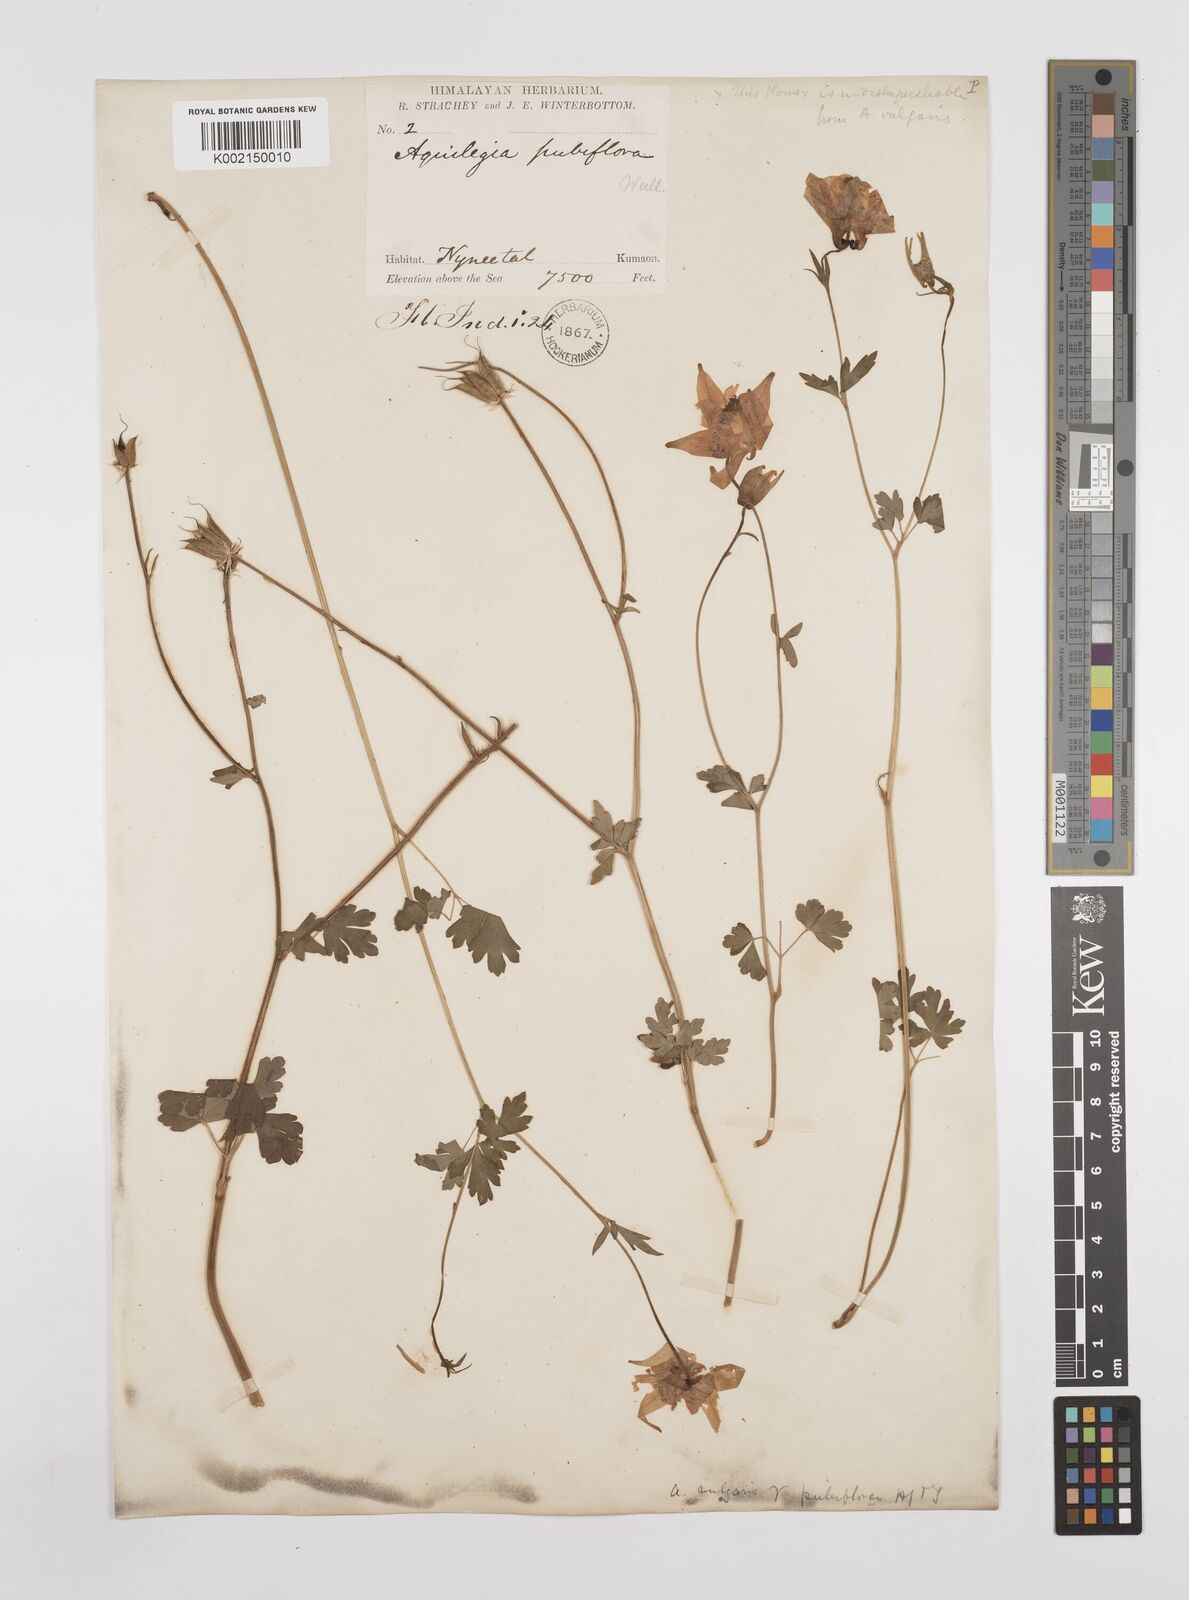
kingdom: Plantae
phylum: Tracheophyta
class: Magnoliopsida
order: Ranunculales
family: Ranunculaceae
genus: Aquilegia
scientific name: Aquilegia pubiflora
